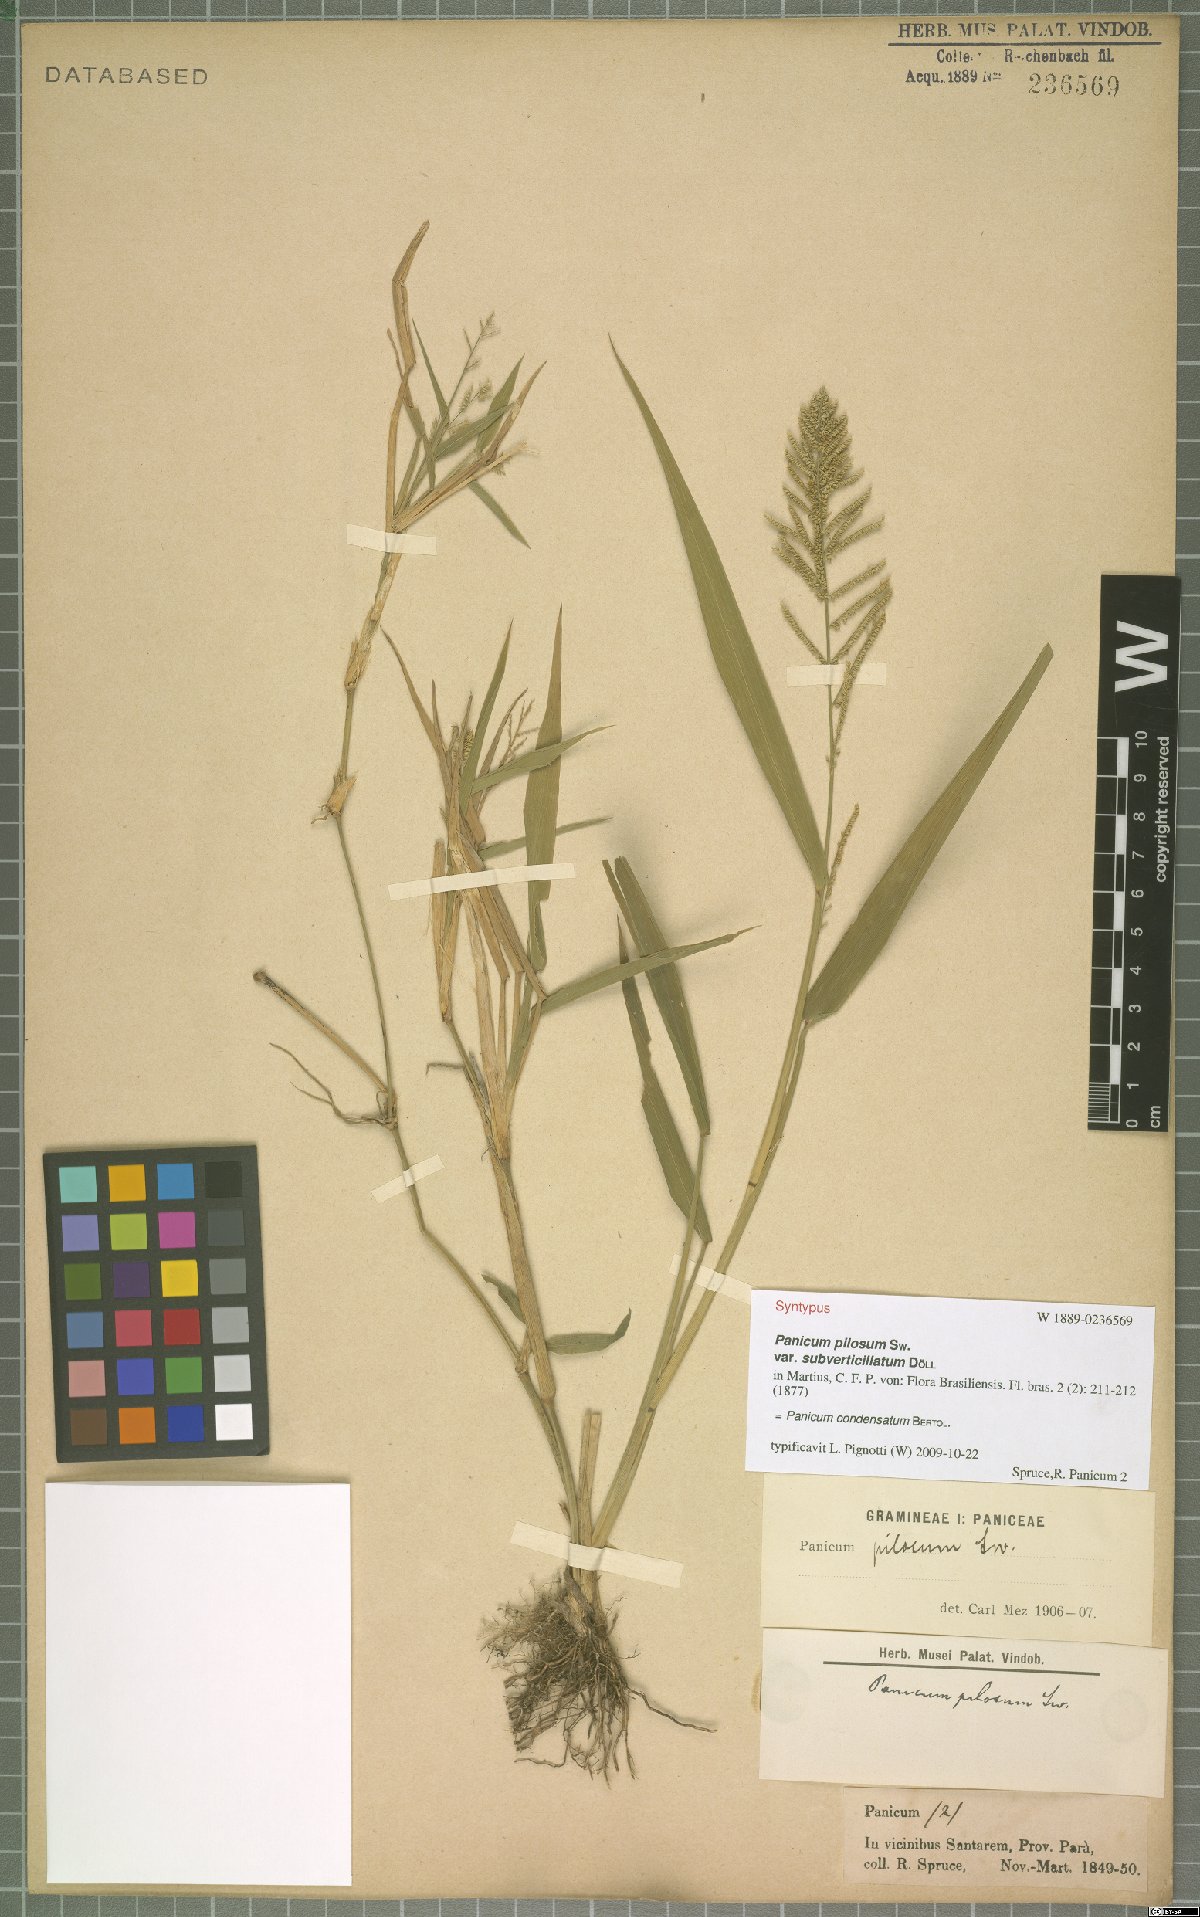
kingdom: Plantae
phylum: Tracheophyta
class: Liliopsida
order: Poales
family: Poaceae
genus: Hymenachne
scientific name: Hymenachne condensata
